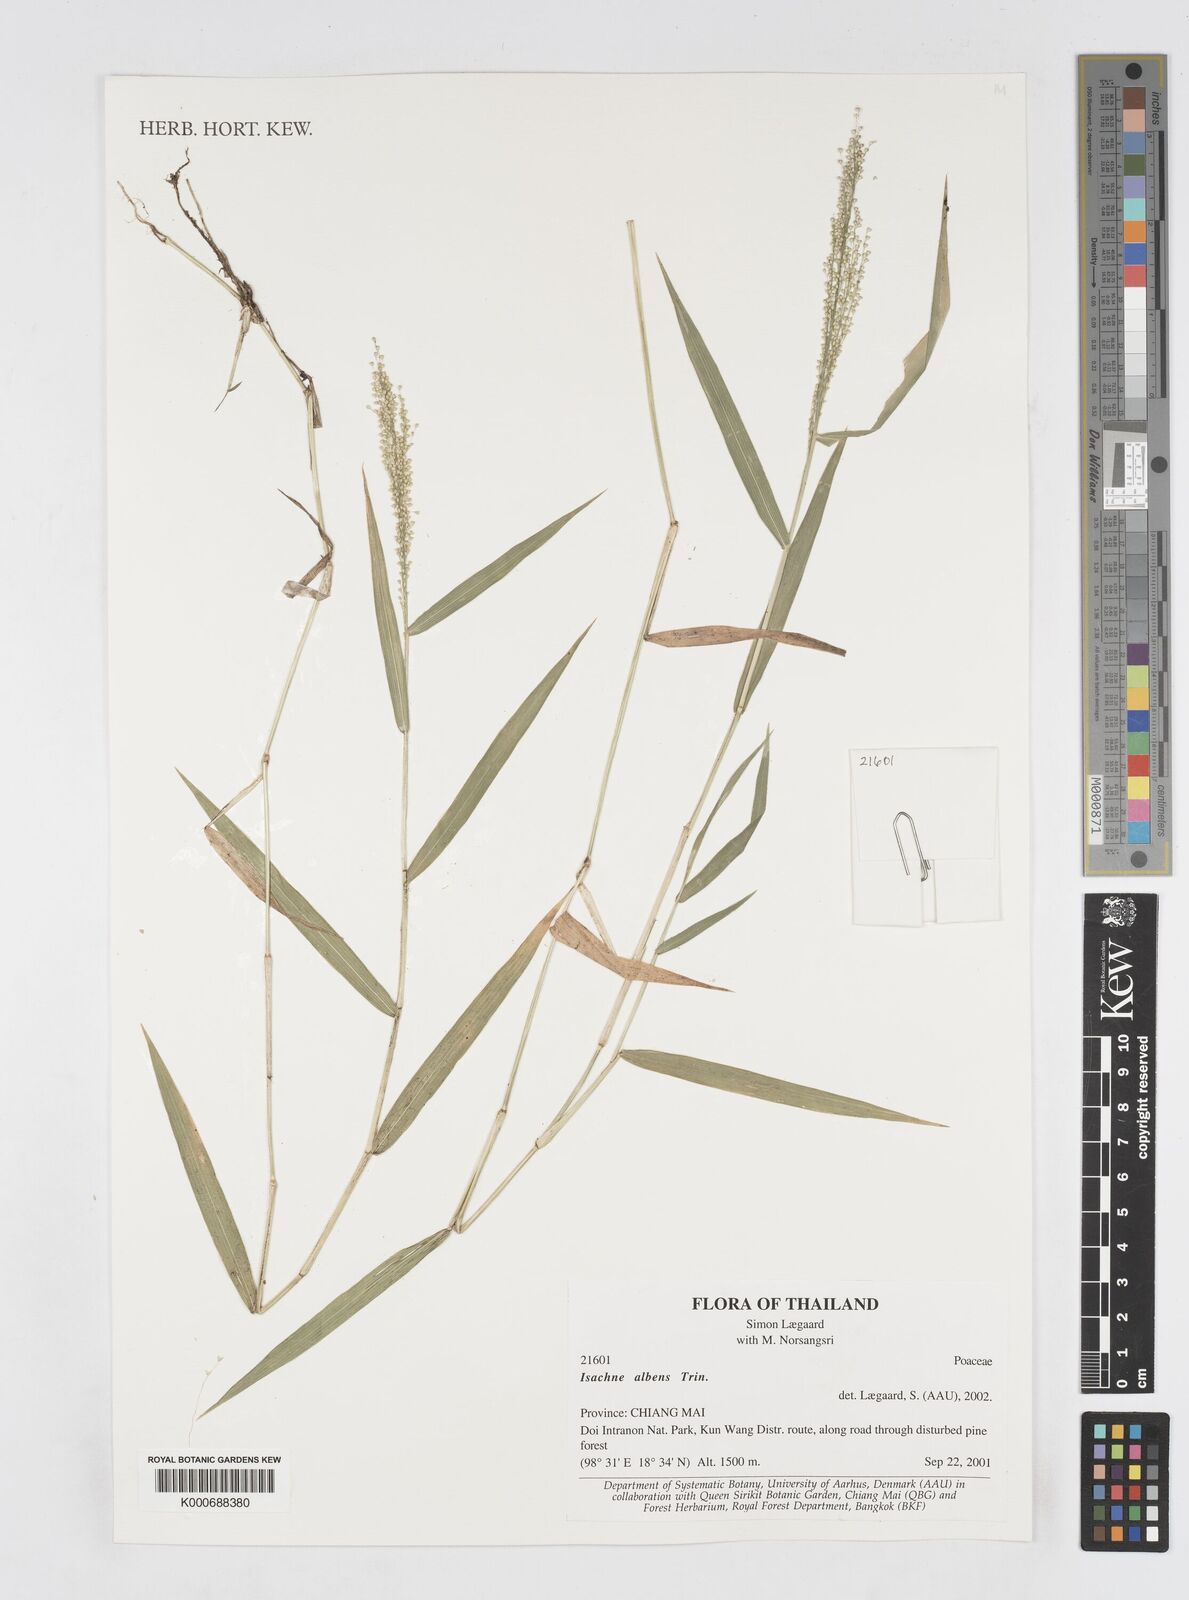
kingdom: Plantae
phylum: Tracheophyta
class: Liliopsida
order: Poales
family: Poaceae
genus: Isachne
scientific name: Isachne albens
